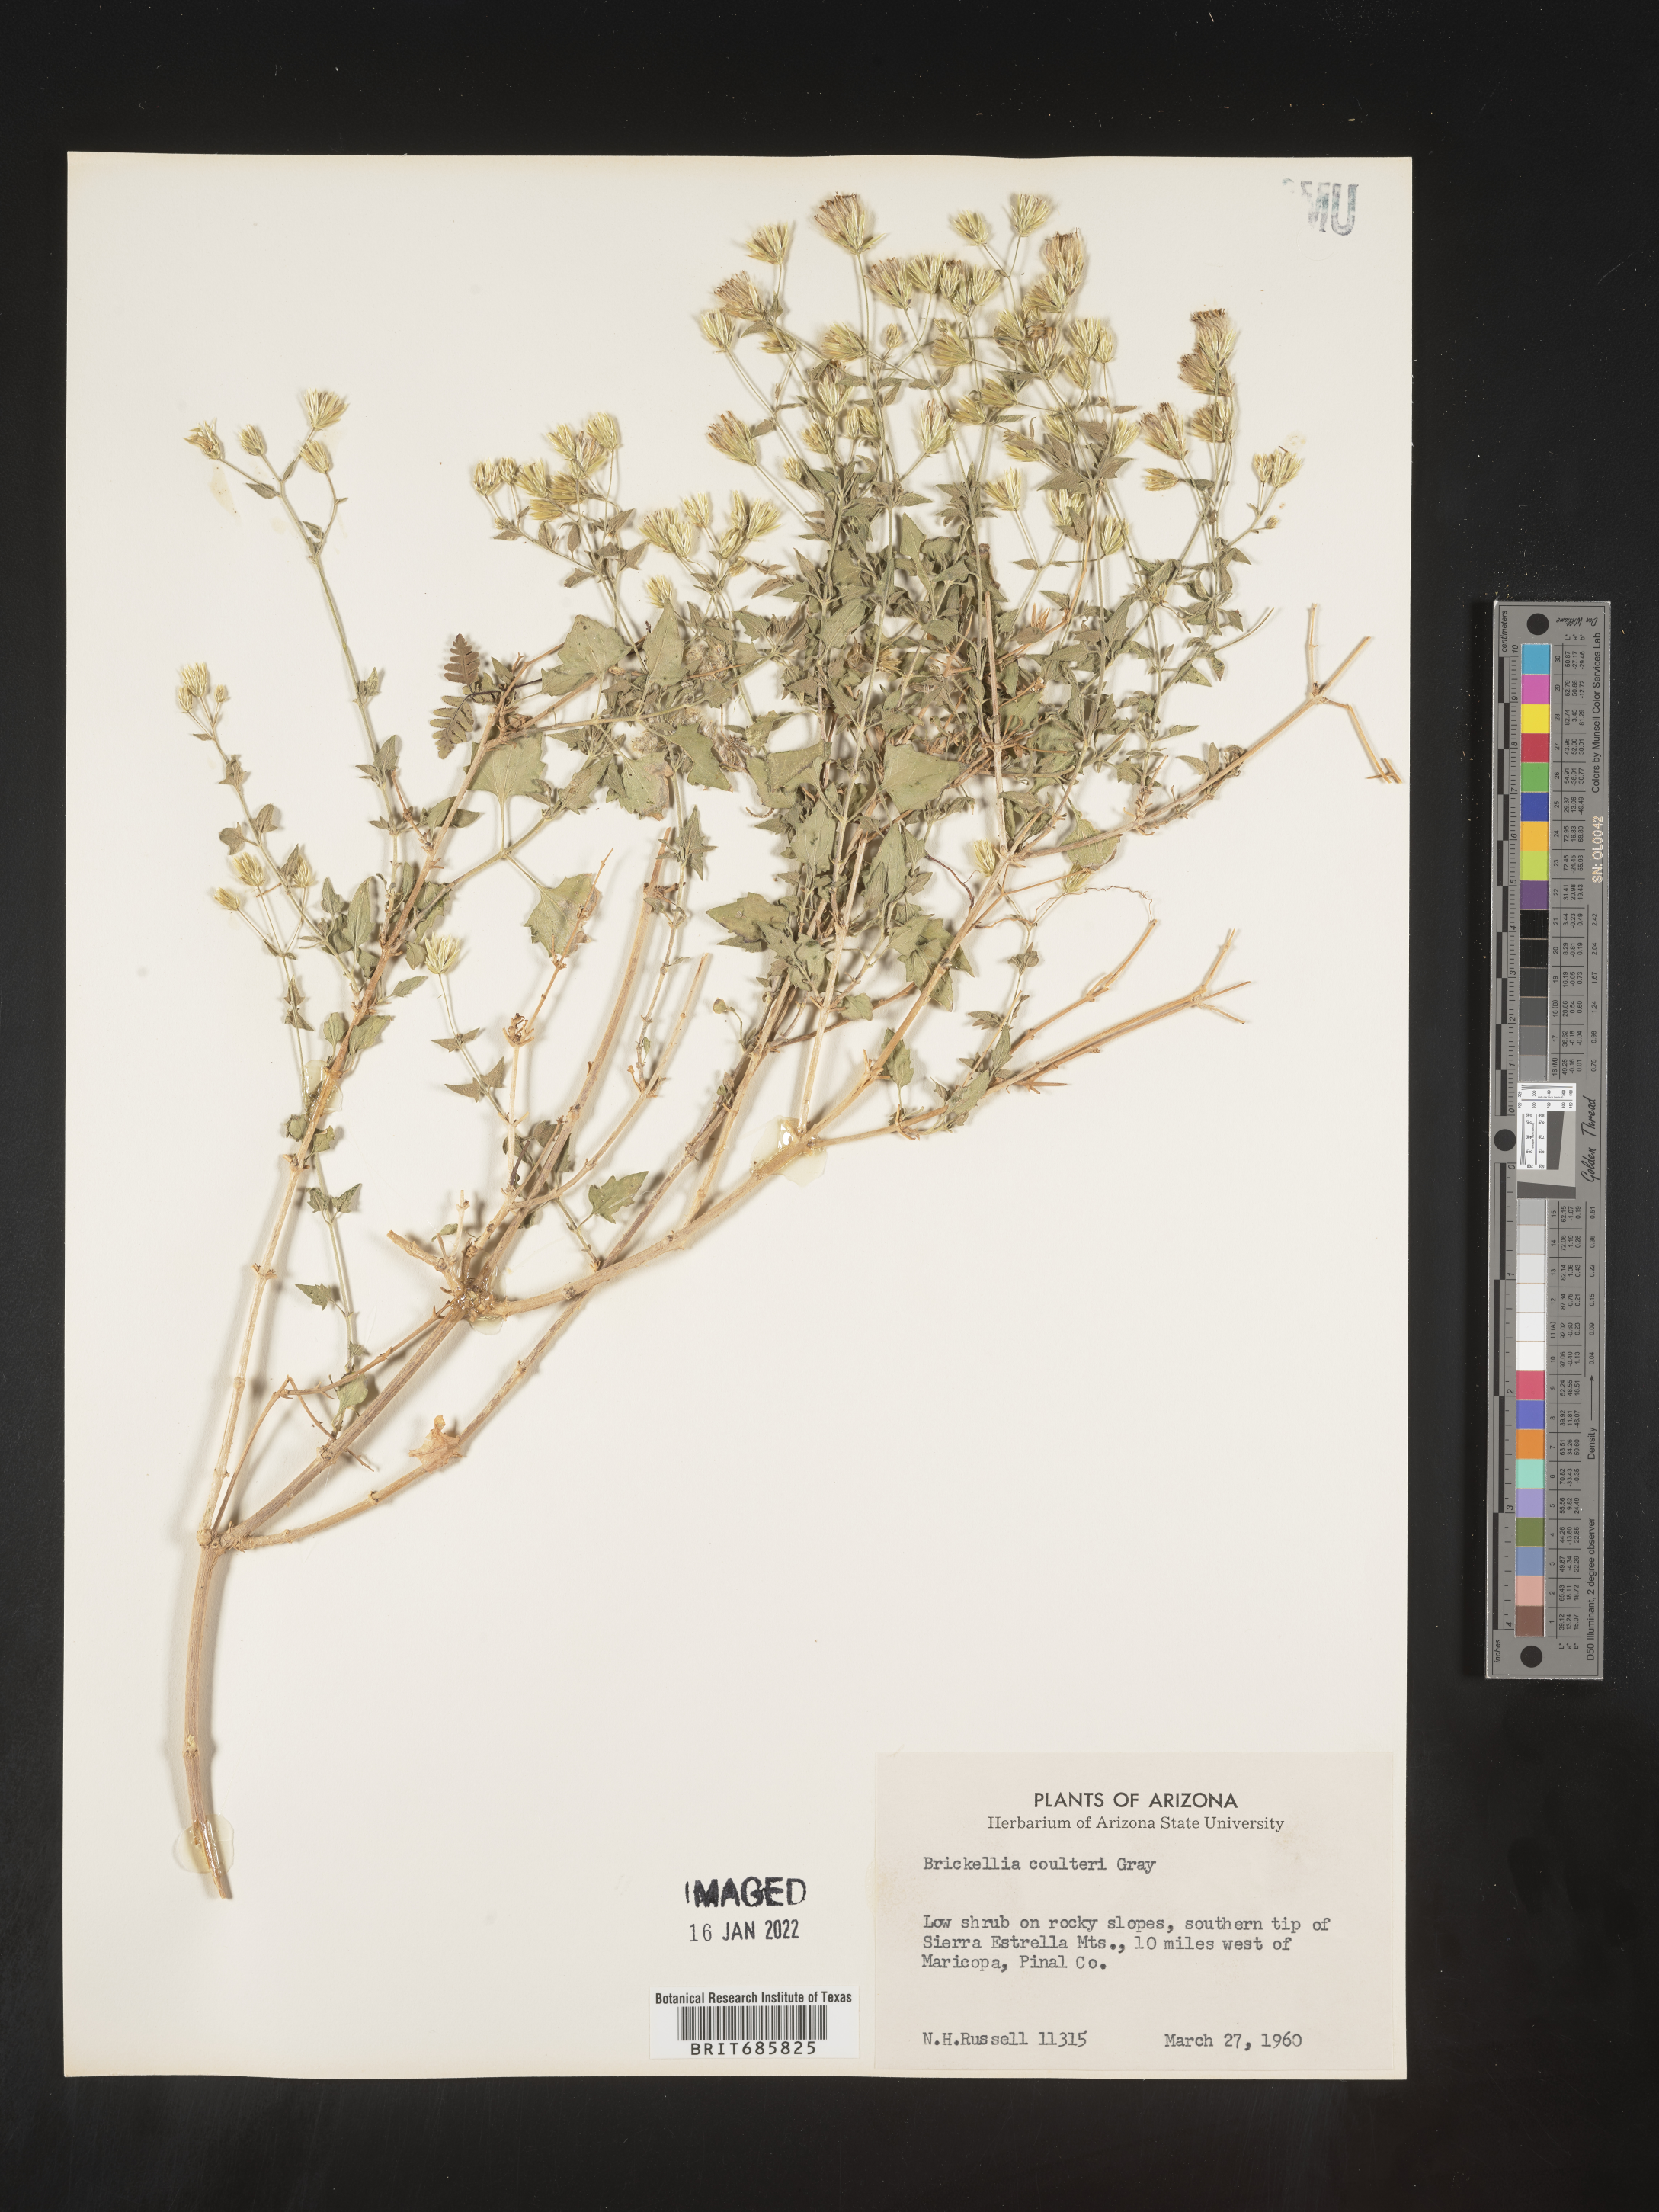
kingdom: Plantae
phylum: Tracheophyta
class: Magnoliopsida
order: Asterales
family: Asteraceae
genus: Brickellia
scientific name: Brickellia coulteri
